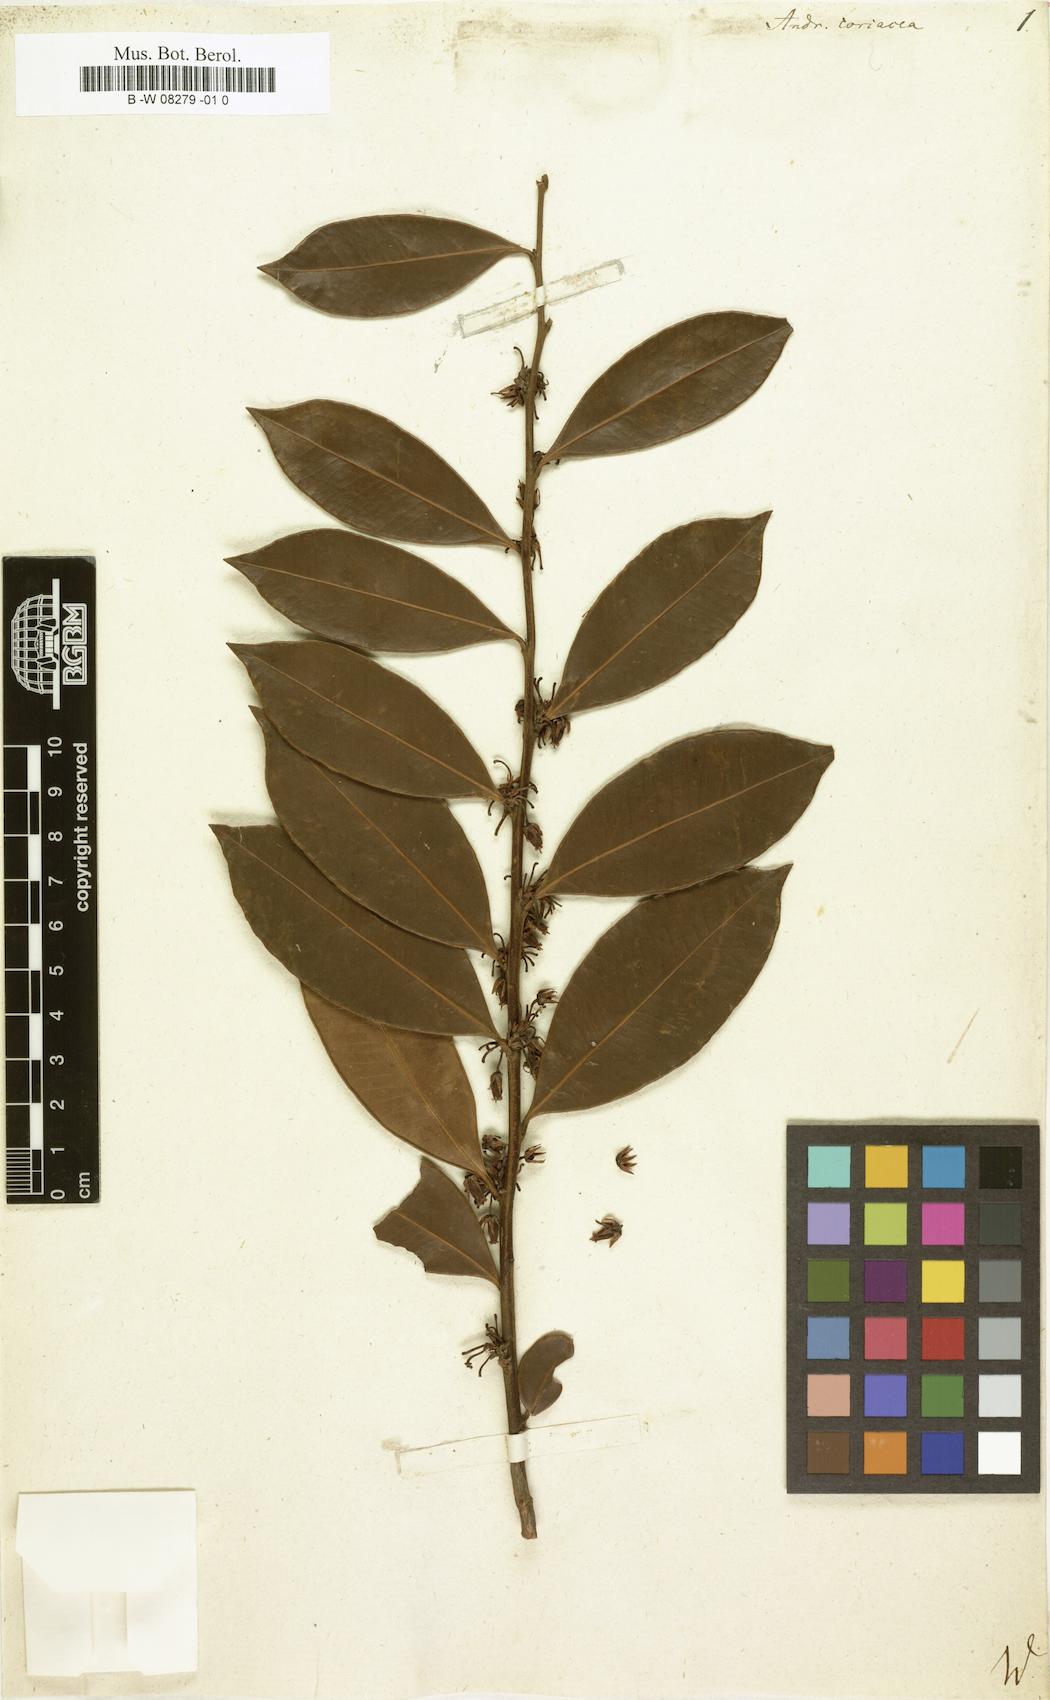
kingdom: Plantae
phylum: Tracheophyta
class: Magnoliopsida
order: Ericales
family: Ericaceae
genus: Lyonia
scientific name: Lyonia lucida
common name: Fetterbush
